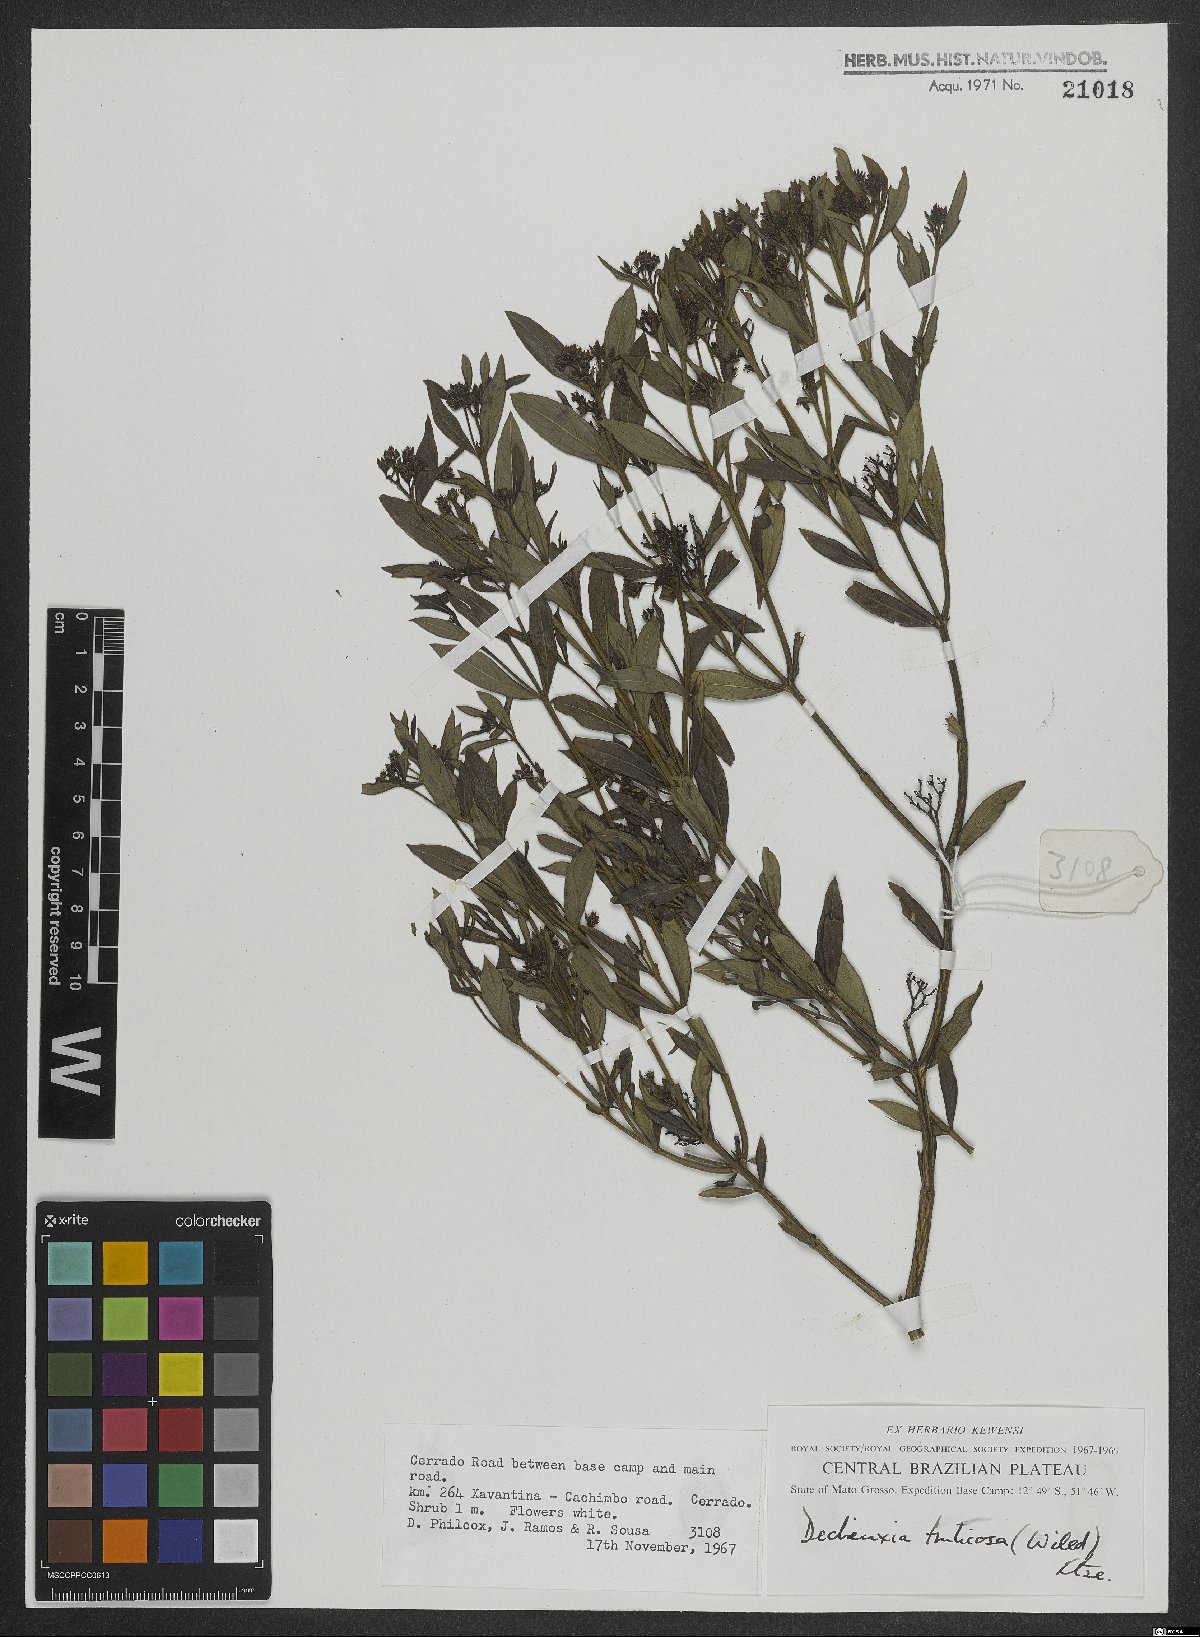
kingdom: Plantae
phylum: Tracheophyta
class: Magnoliopsida
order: Gentianales
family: Rubiaceae
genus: Declieuxia
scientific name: Declieuxia fruticosa
